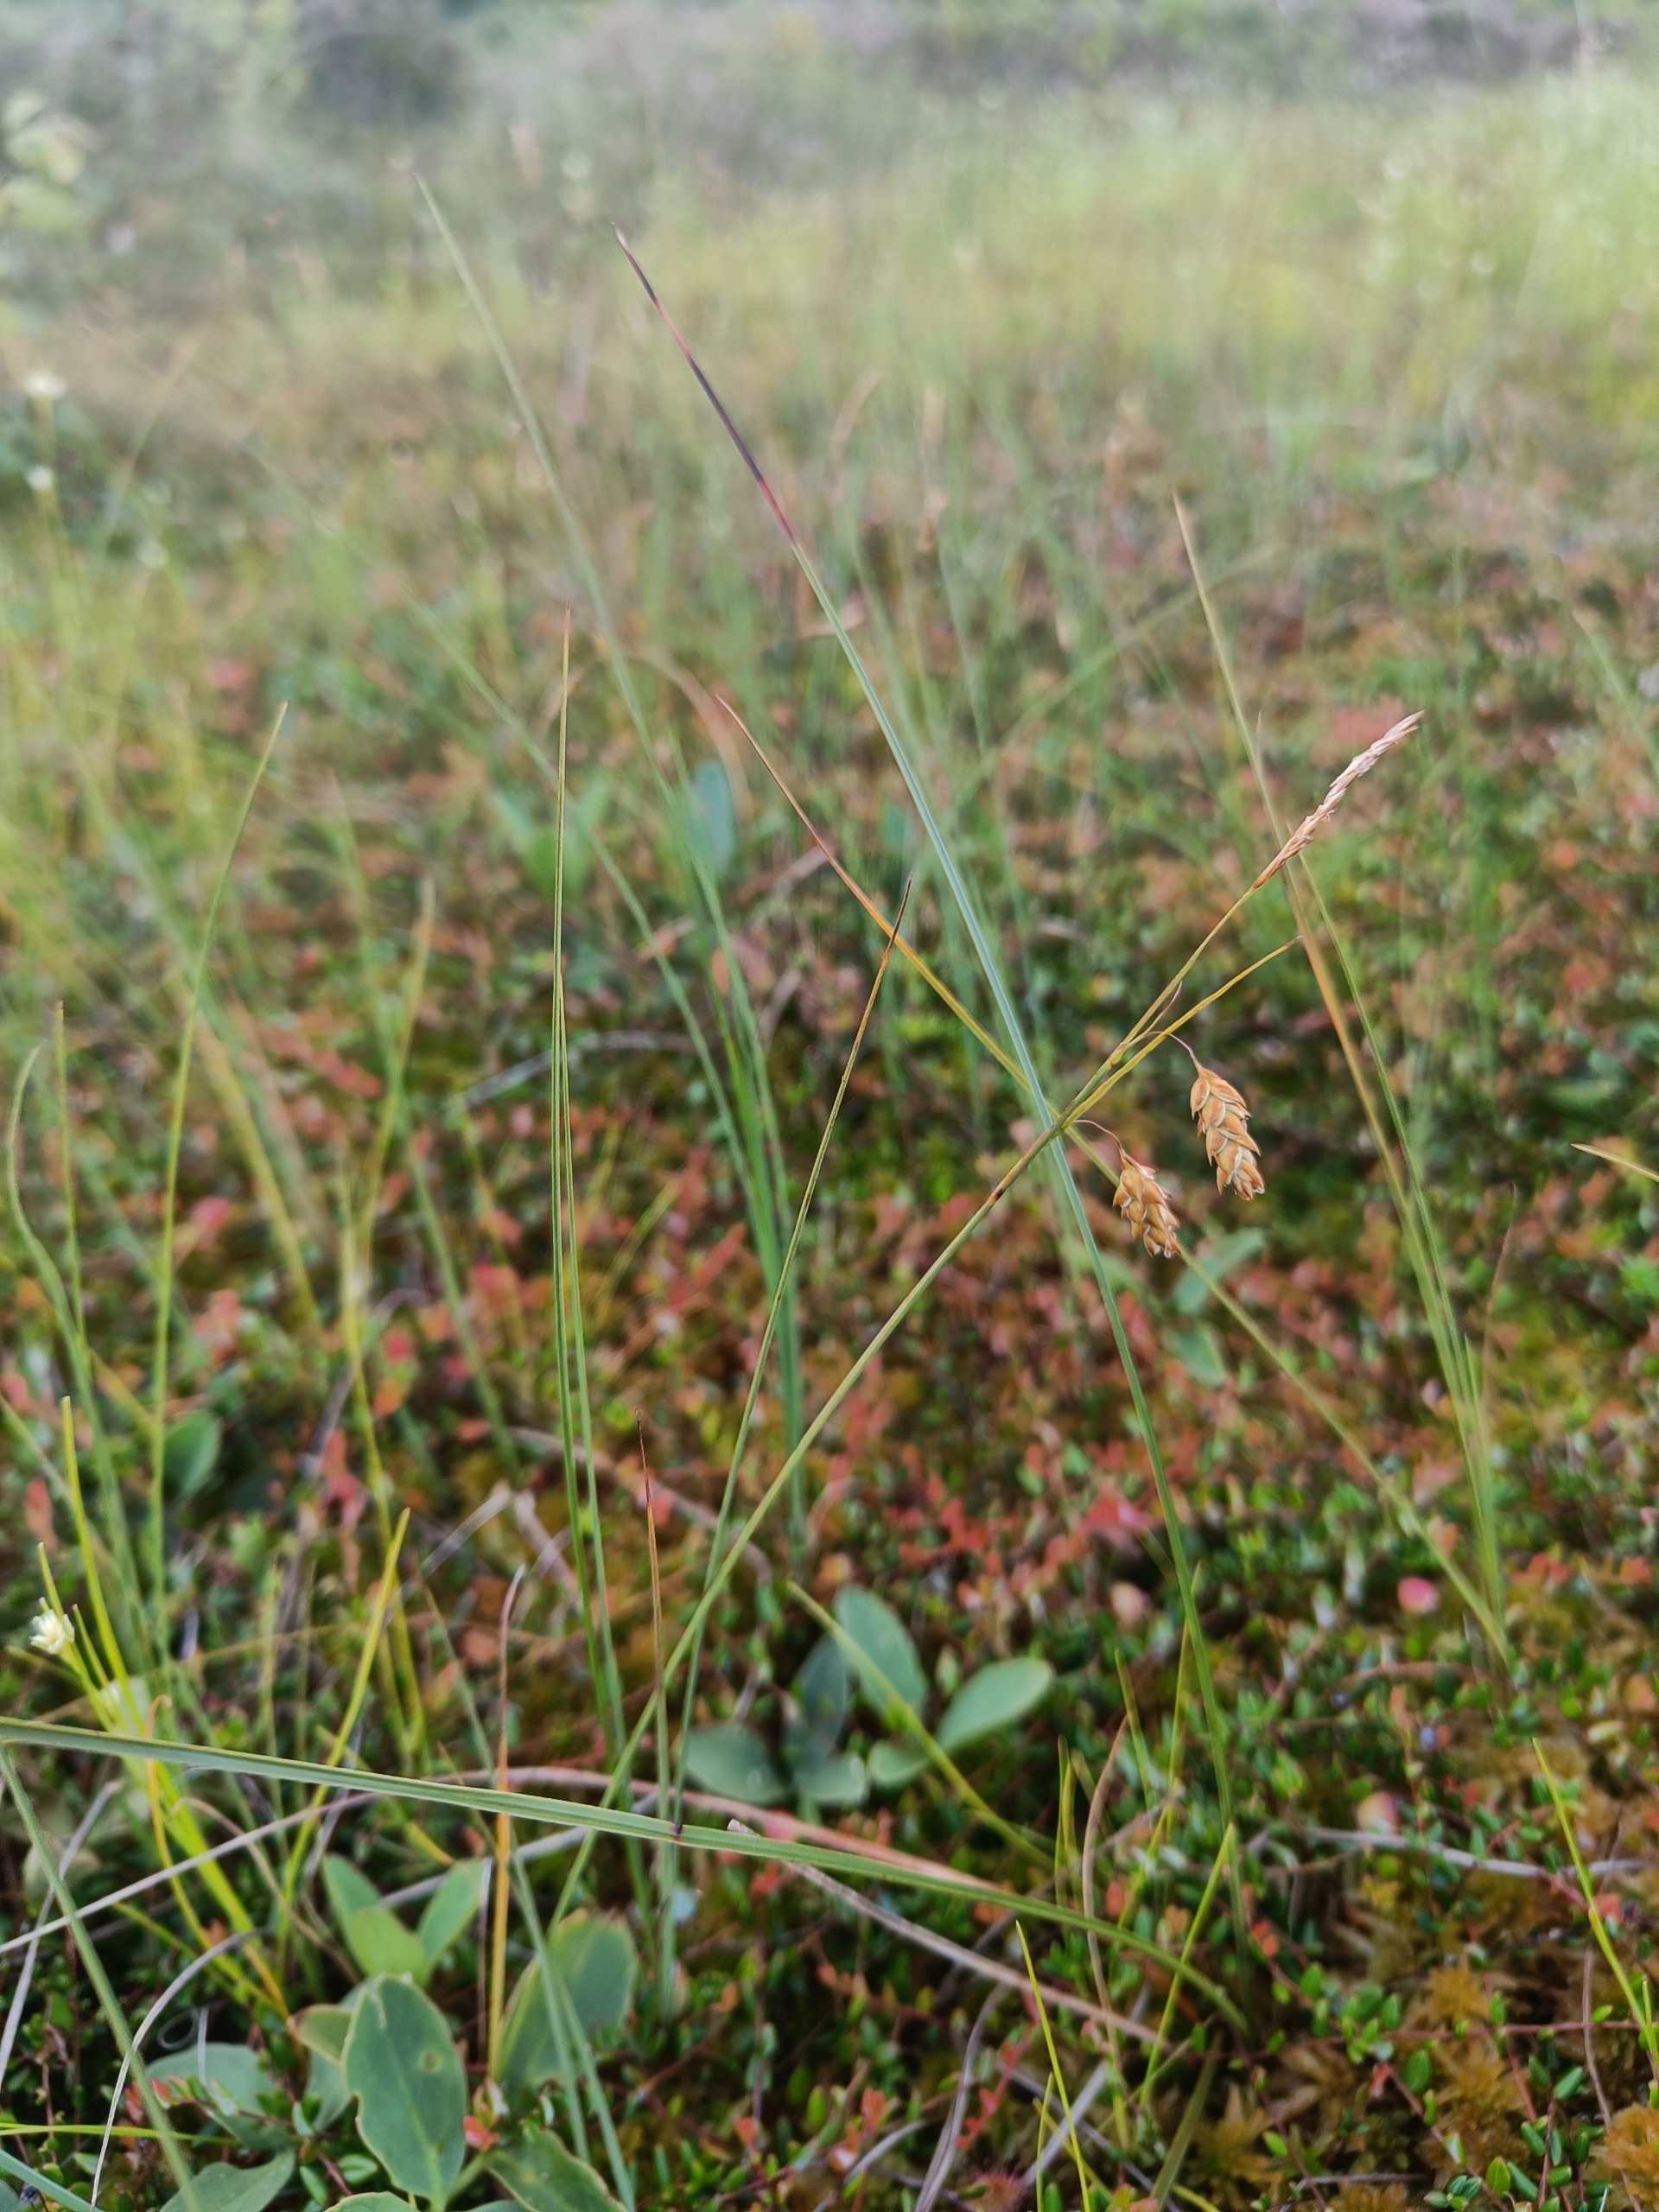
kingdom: Plantae
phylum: Tracheophyta
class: Liliopsida
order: Poales
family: Cyperaceae
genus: Carex
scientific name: Carex limosa
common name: Dynd-star
